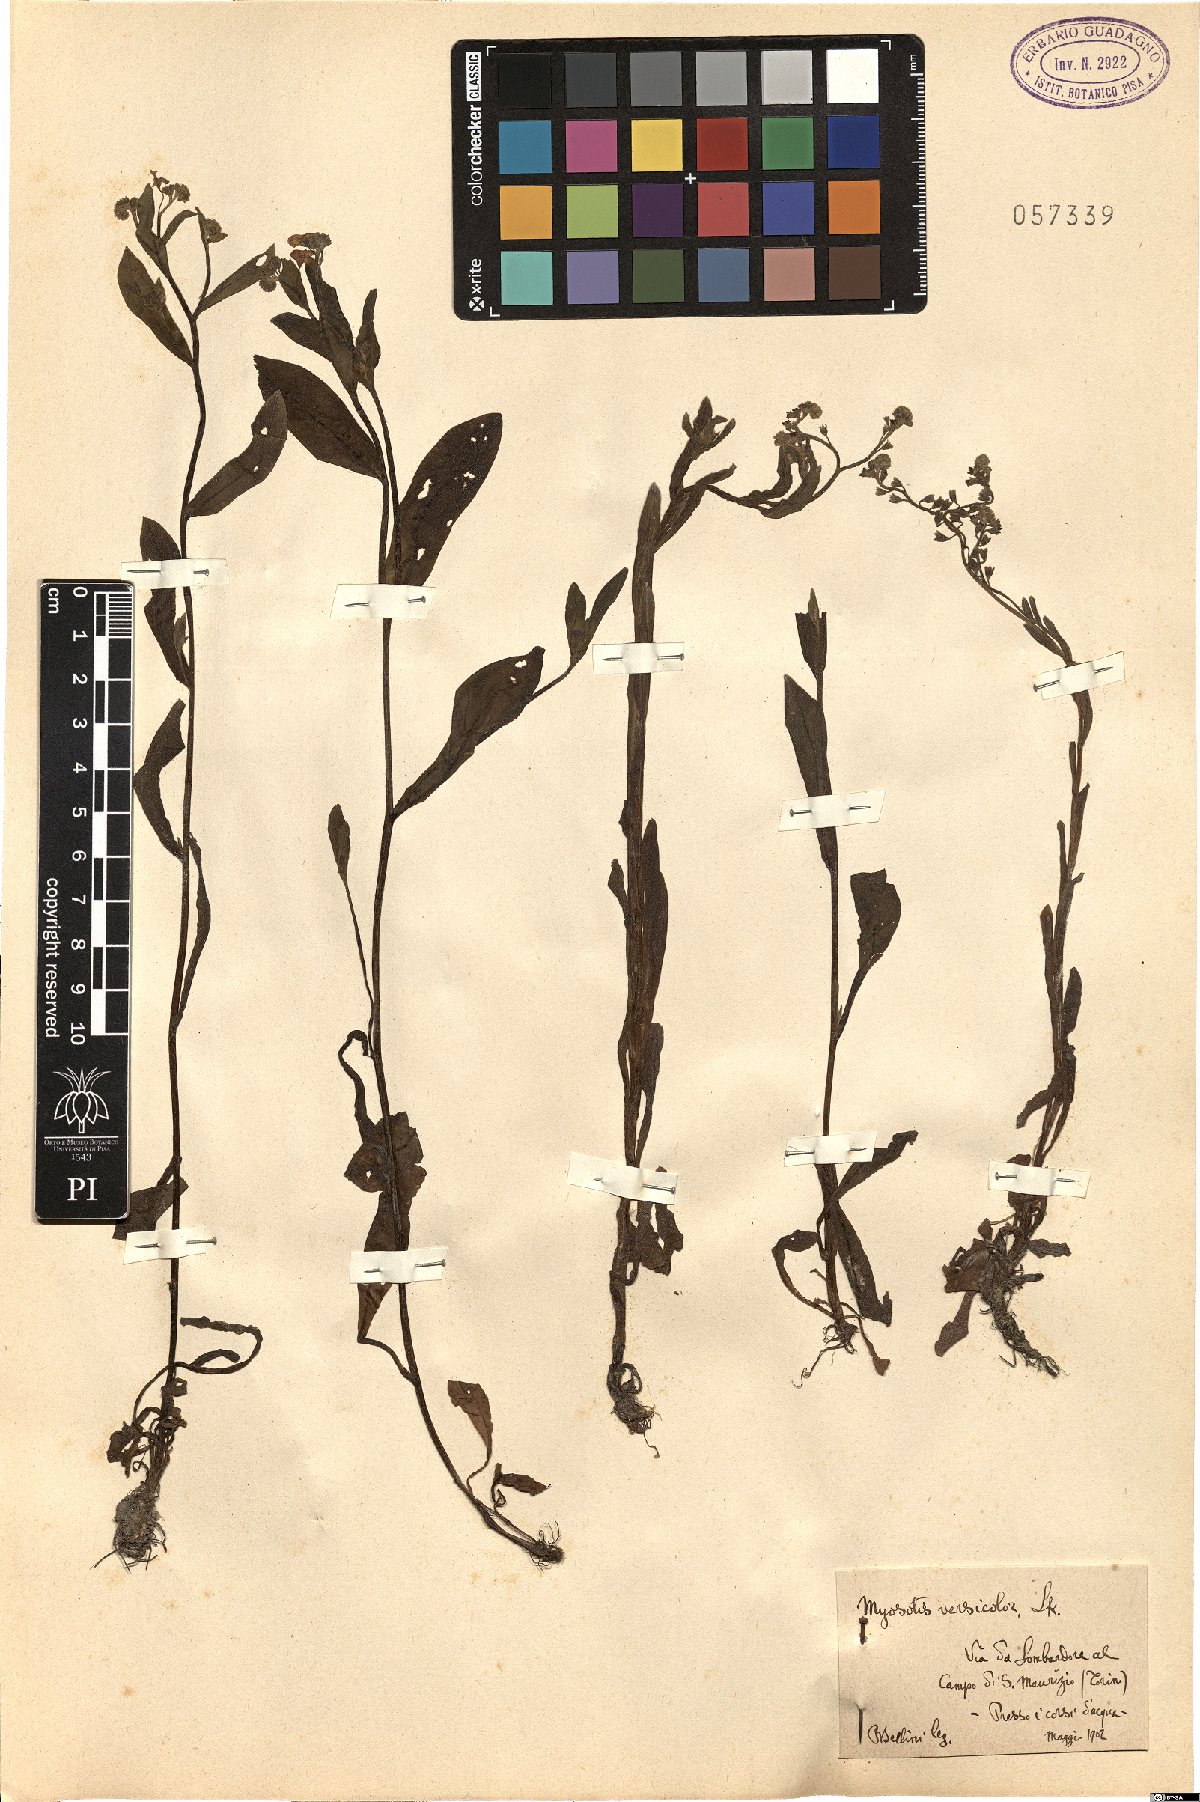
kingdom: Plantae
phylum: Tracheophyta
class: Magnoliopsida
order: Boraginales
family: Boraginaceae
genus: Myosotis
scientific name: Myosotis discolor
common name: Changing forget-me-not
